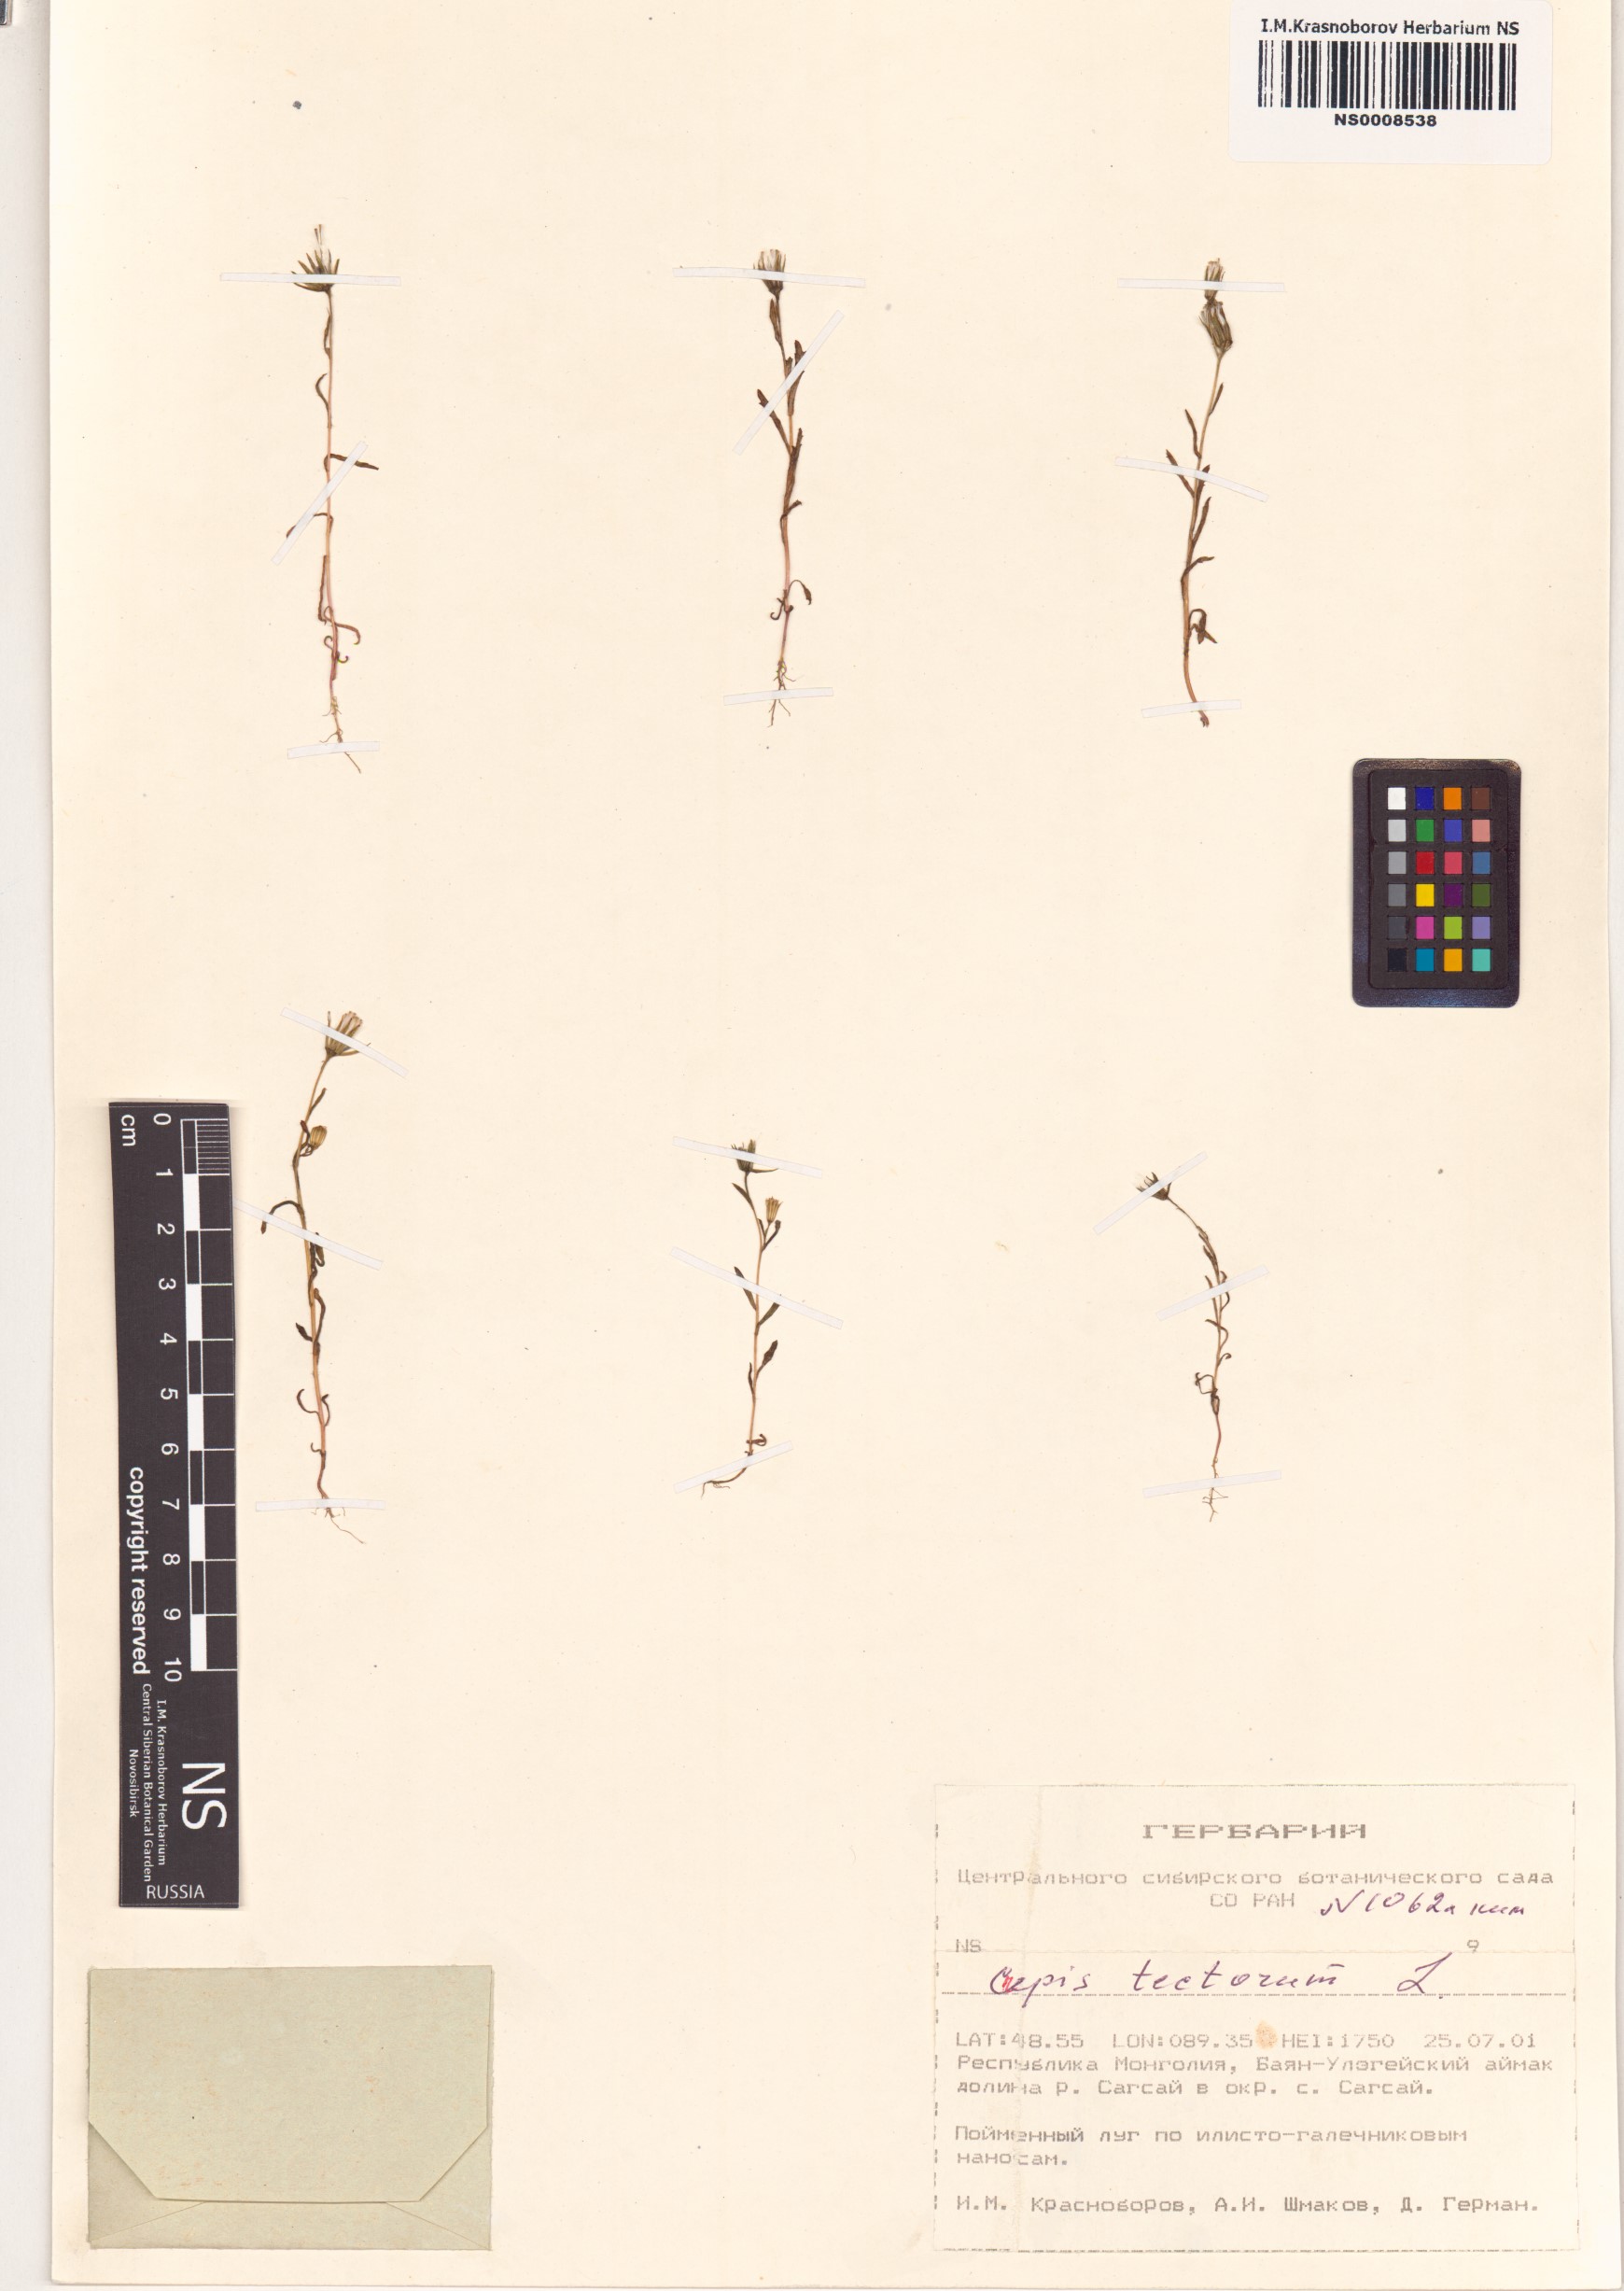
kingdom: Plantae
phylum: Tracheophyta
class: Magnoliopsida
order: Asterales
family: Asteraceae
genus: Crepis
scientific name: Crepis tectorum
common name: Narrow-leaved hawk's-beard
